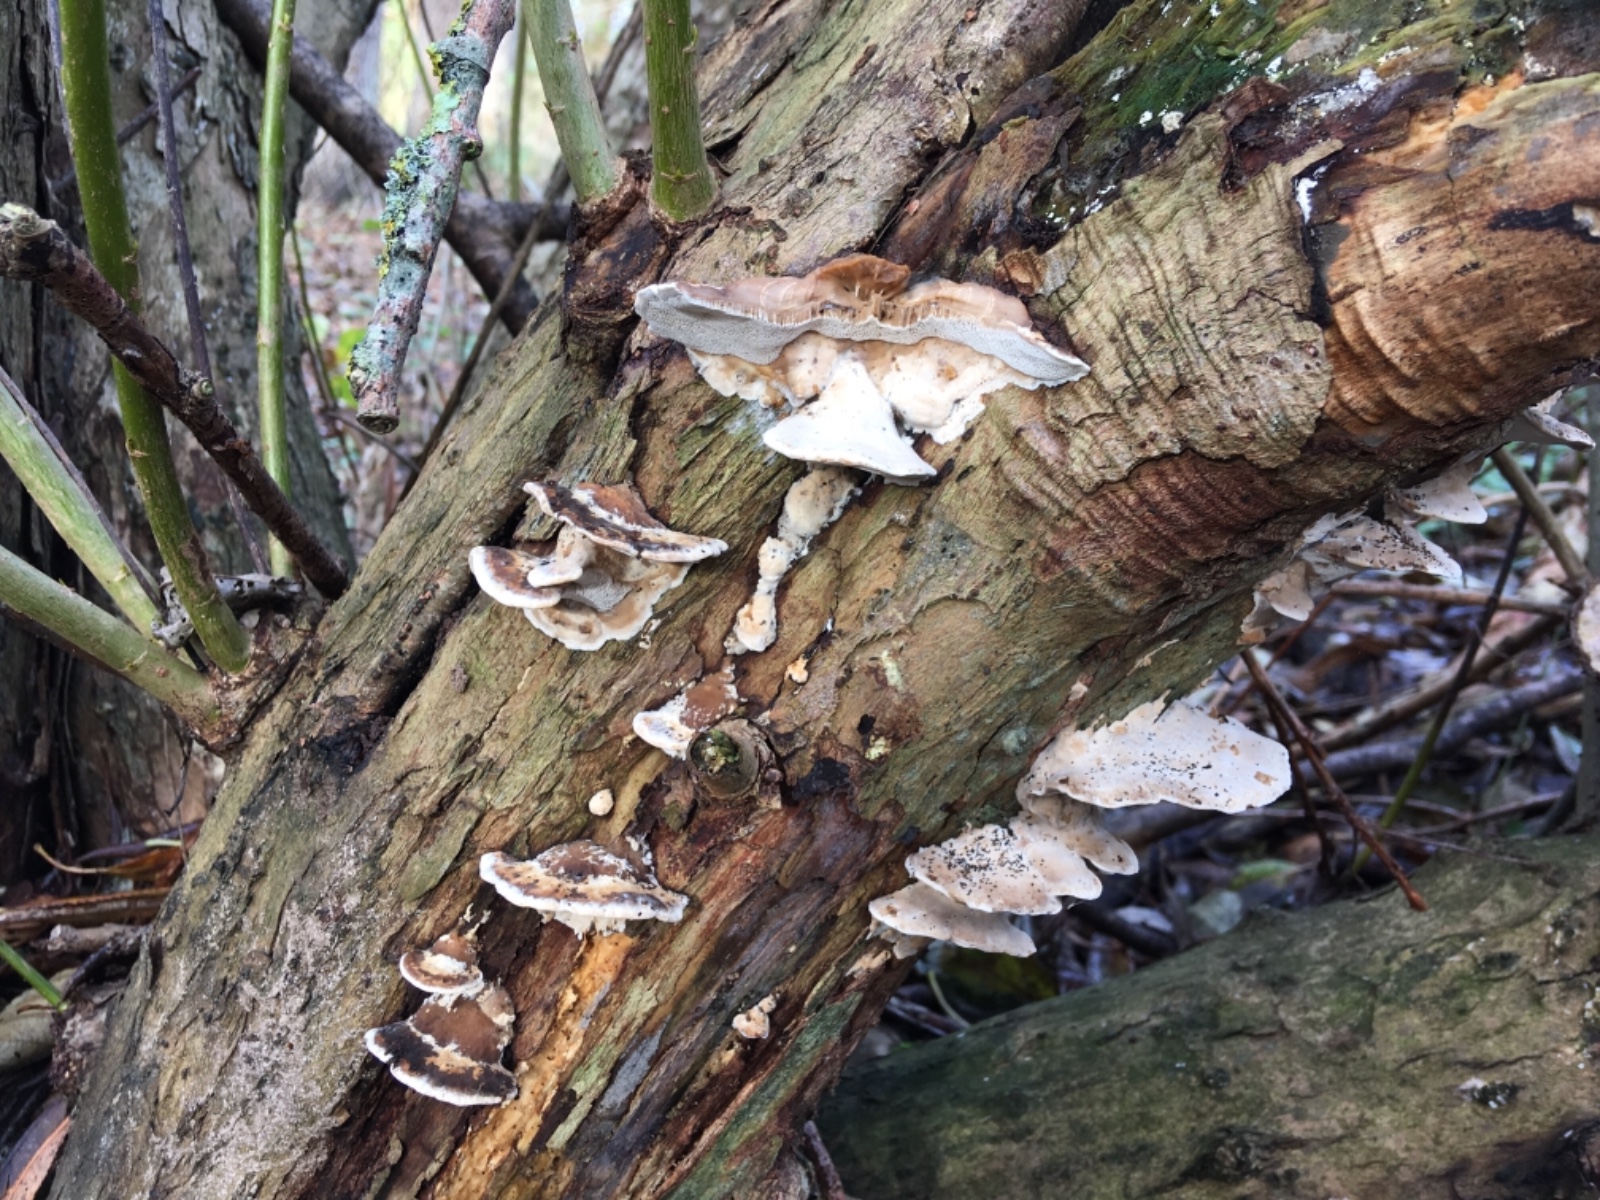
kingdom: Fungi
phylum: Basidiomycota
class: Agaricomycetes
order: Polyporales
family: Phanerochaetaceae
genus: Bjerkandera
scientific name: Bjerkandera fumosa
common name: grågul sodporesvamp
